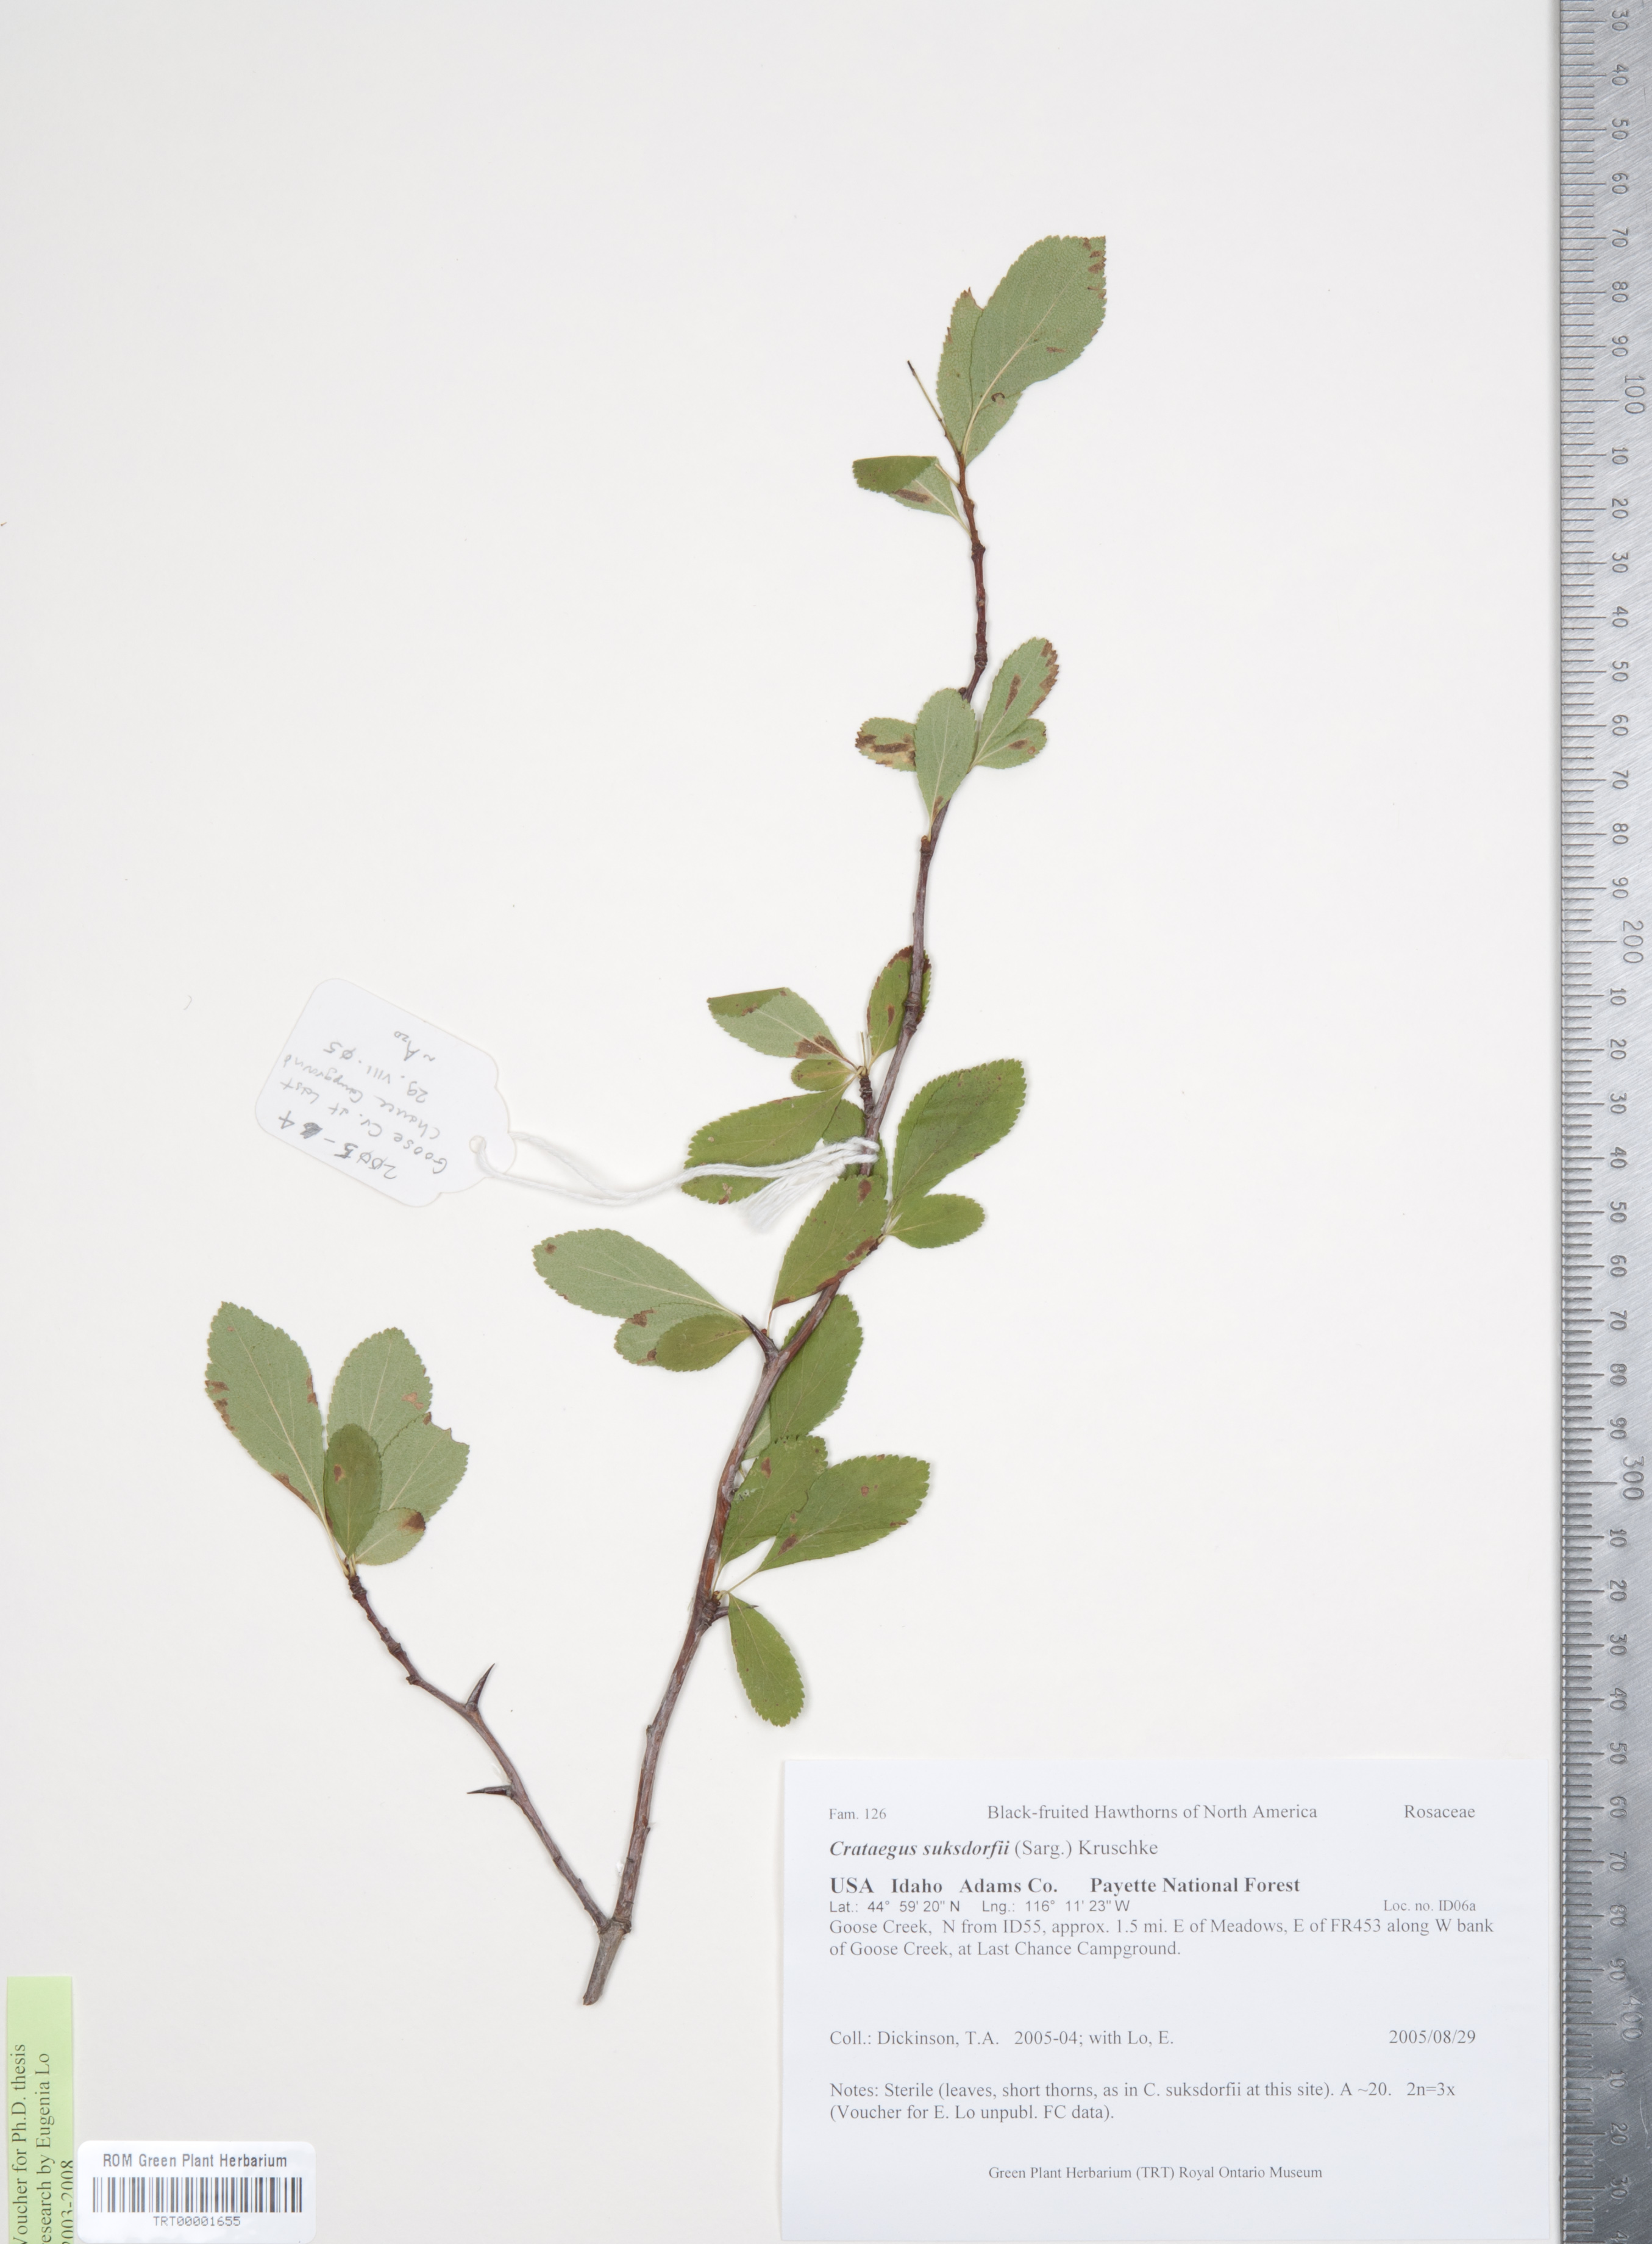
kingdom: Plantae
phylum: Tracheophyta
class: Magnoliopsida
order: Rosales
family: Rosaceae
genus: Crataegus
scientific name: Crataegus gaylussacia
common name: Huckleberry hawthorn
